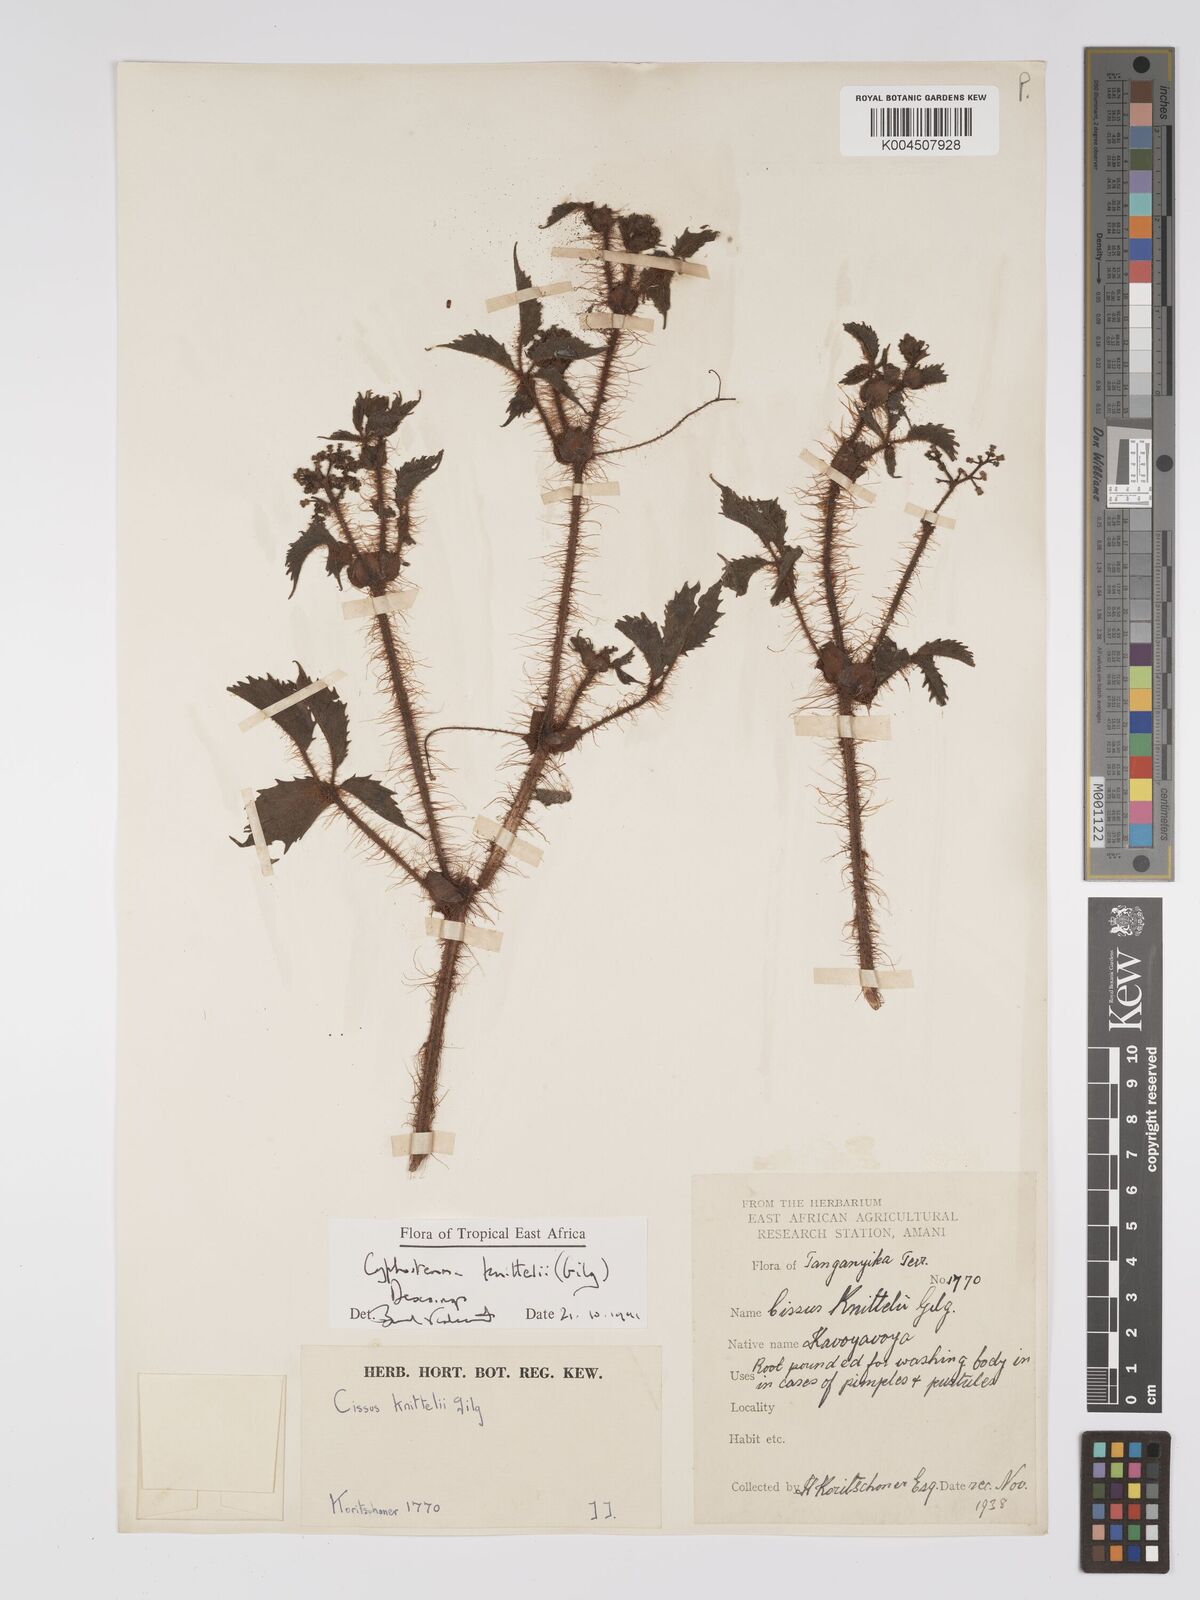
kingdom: Plantae
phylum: Tracheophyta
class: Magnoliopsida
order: Vitales
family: Vitaceae
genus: Cyphostemma
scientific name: Cyphostemma knittelii
